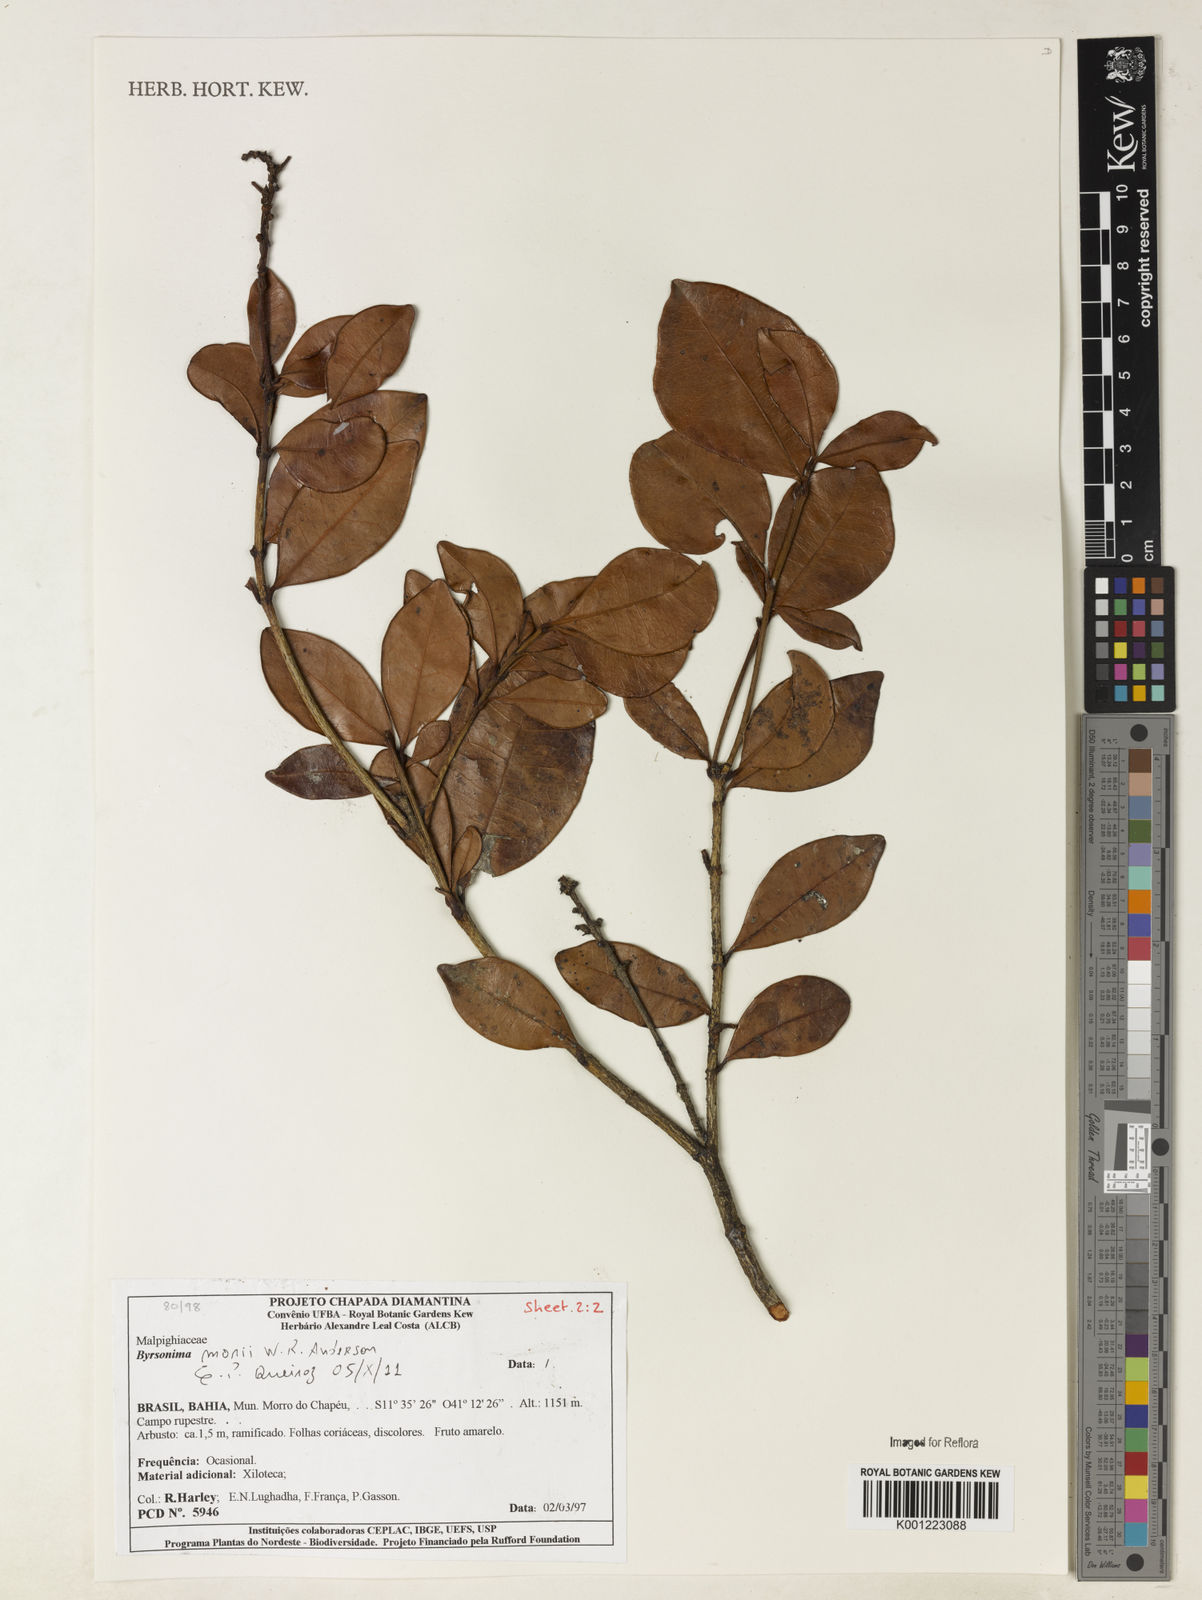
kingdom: Plantae
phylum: Tracheophyta
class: Magnoliopsida
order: Malpighiales
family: Malpighiaceae
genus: Byrsonima
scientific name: Byrsonima morii
